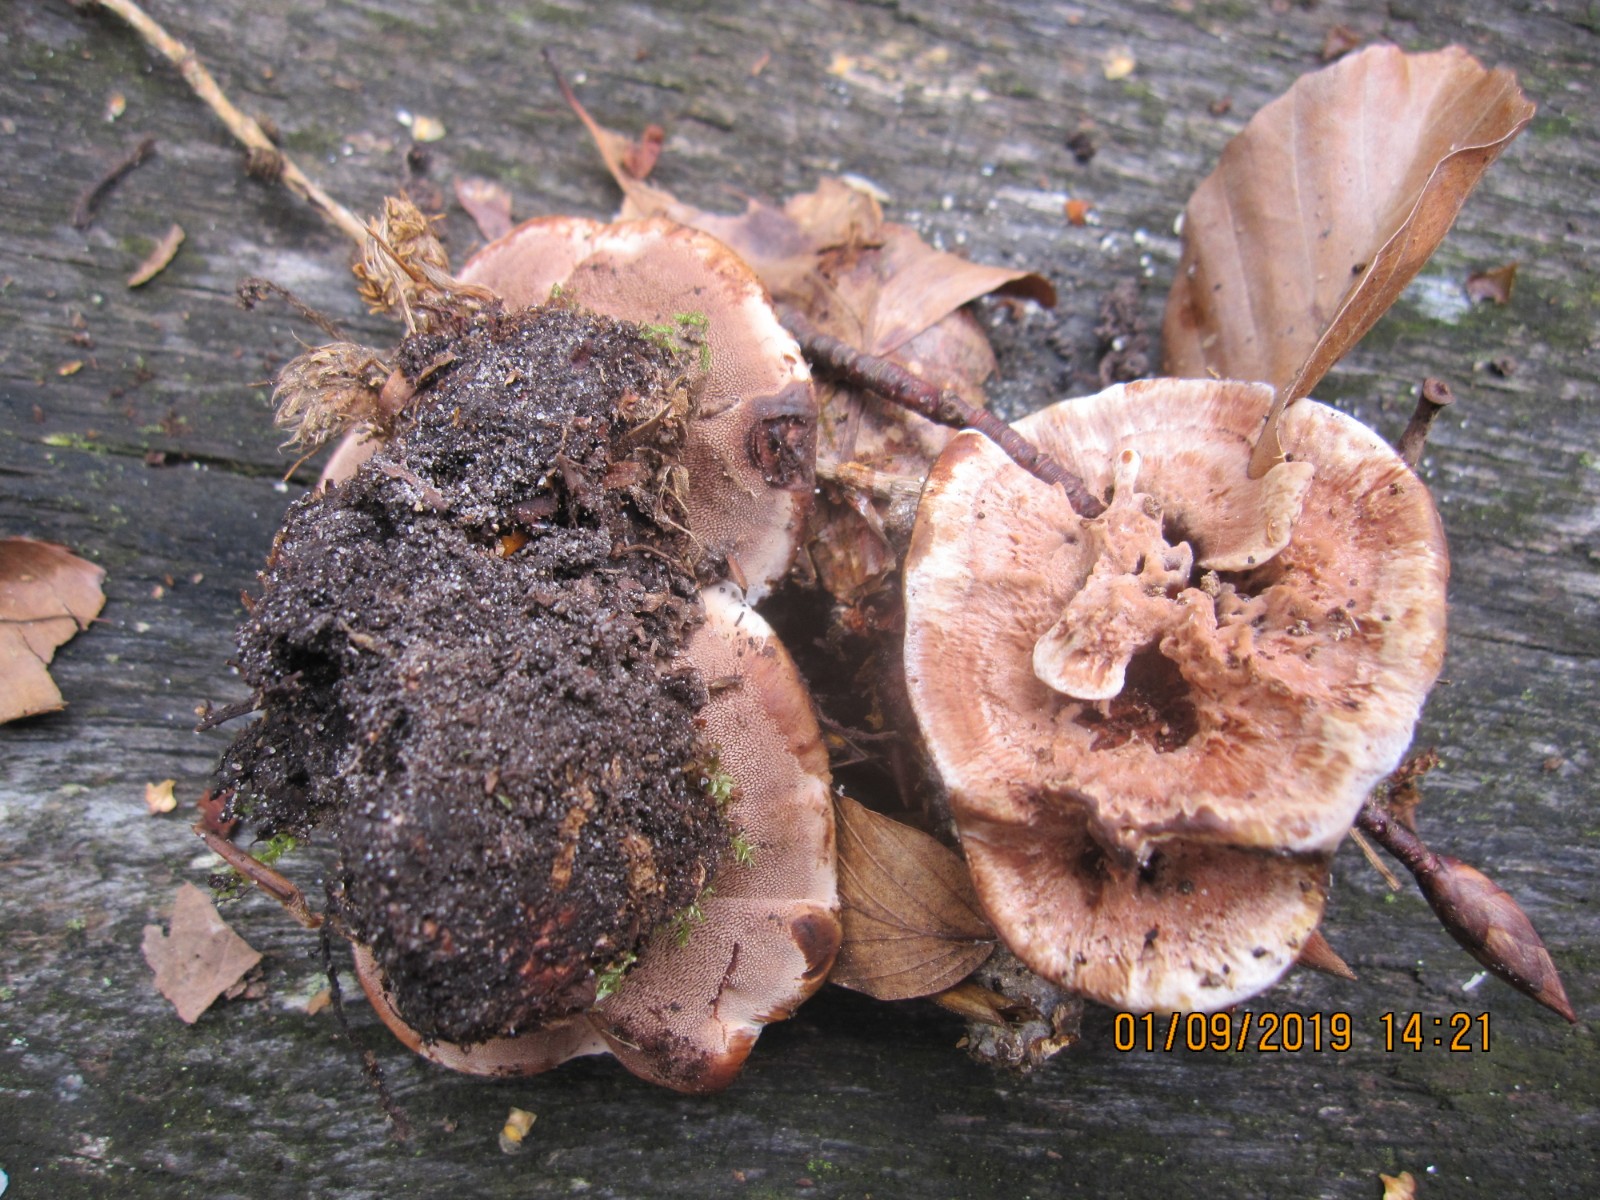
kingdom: Fungi
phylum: Basidiomycota
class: Agaricomycetes
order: Thelephorales
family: Bankeraceae
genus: Hydnellum
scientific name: Hydnellum concrescens
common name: bæltet korkpigsvamp
